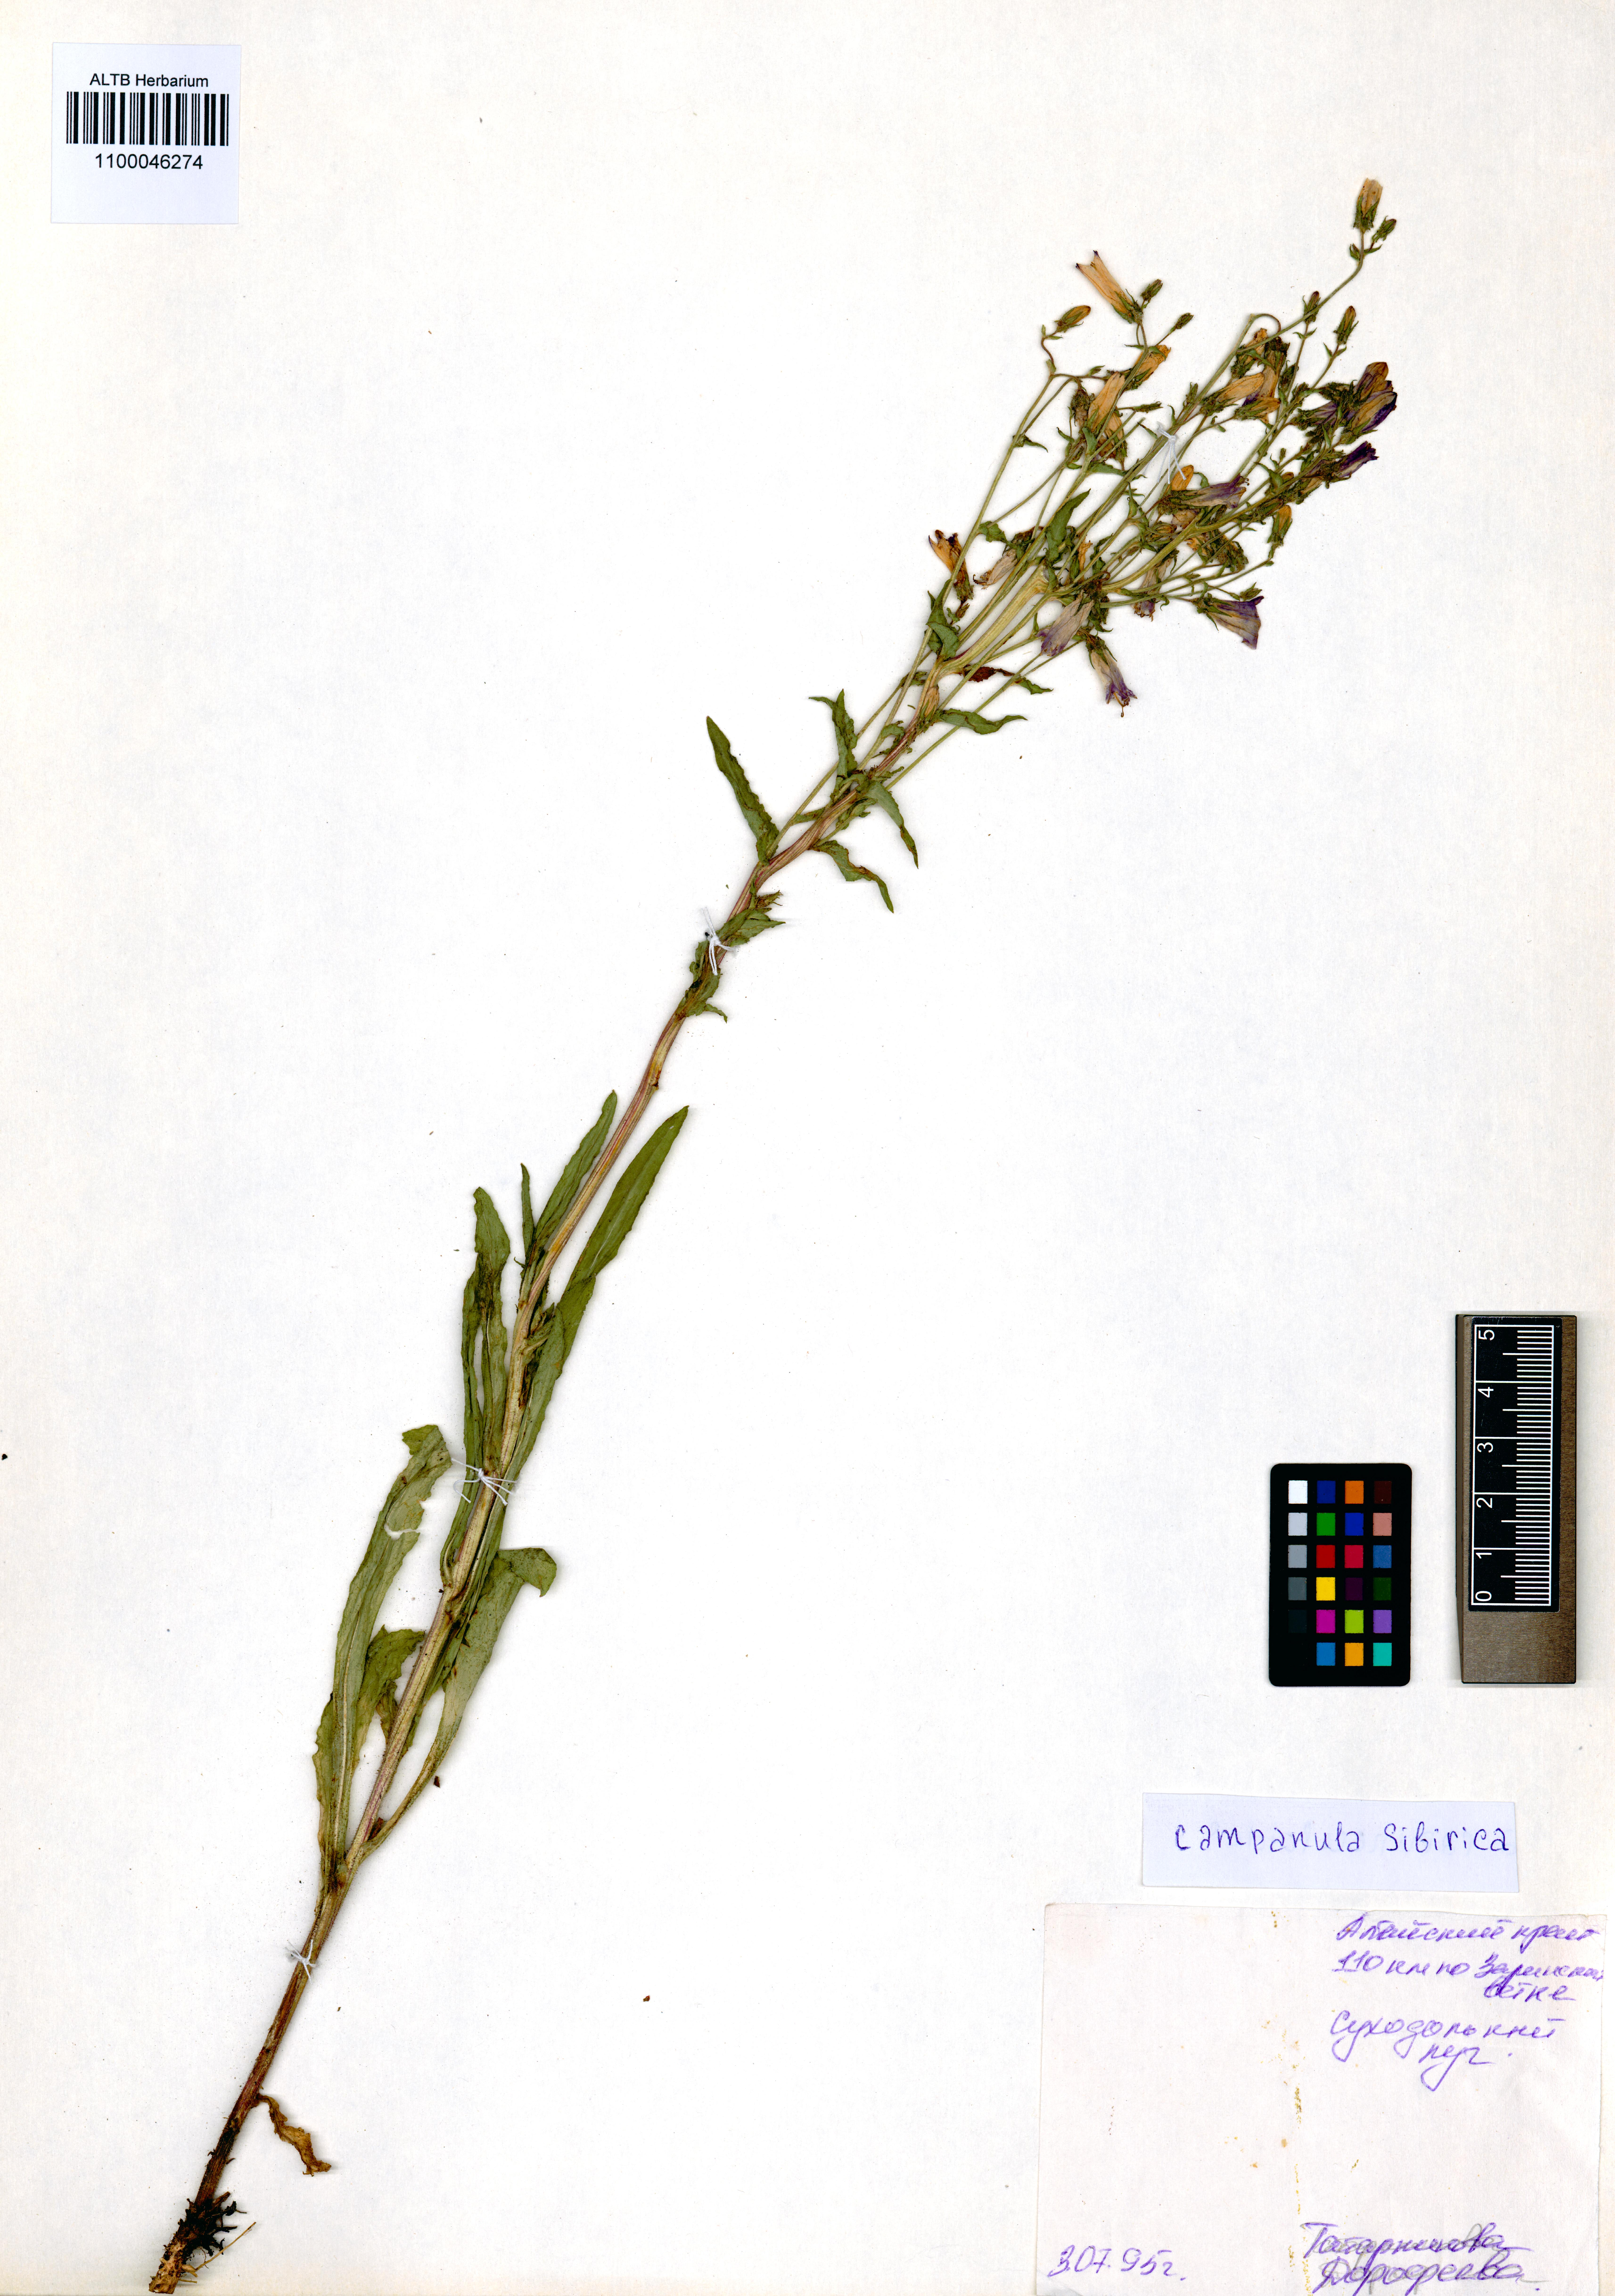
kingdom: Plantae
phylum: Tracheophyta
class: Magnoliopsida
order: Asterales
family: Campanulaceae
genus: Campanula
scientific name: Campanula sibirica
